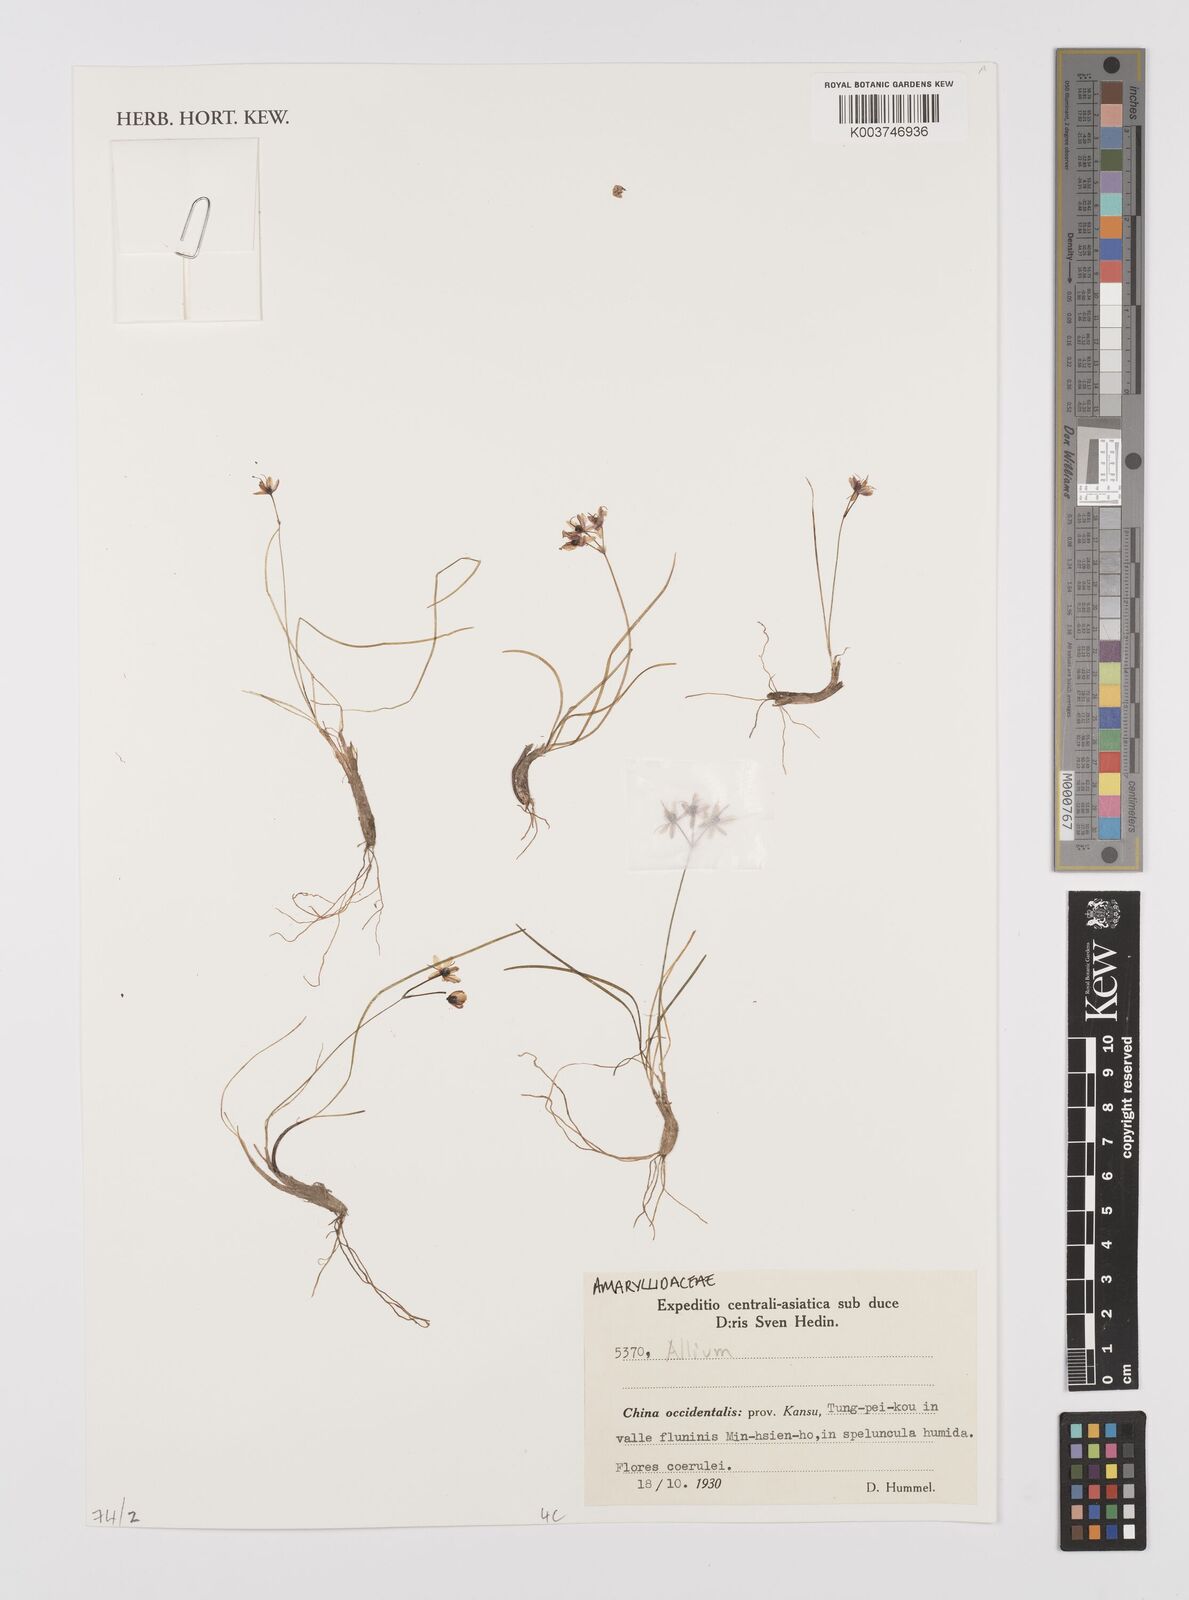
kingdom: Plantae
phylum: Tracheophyta
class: Liliopsida
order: Asparagales
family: Amaryllidaceae
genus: Allium
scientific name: Allium
